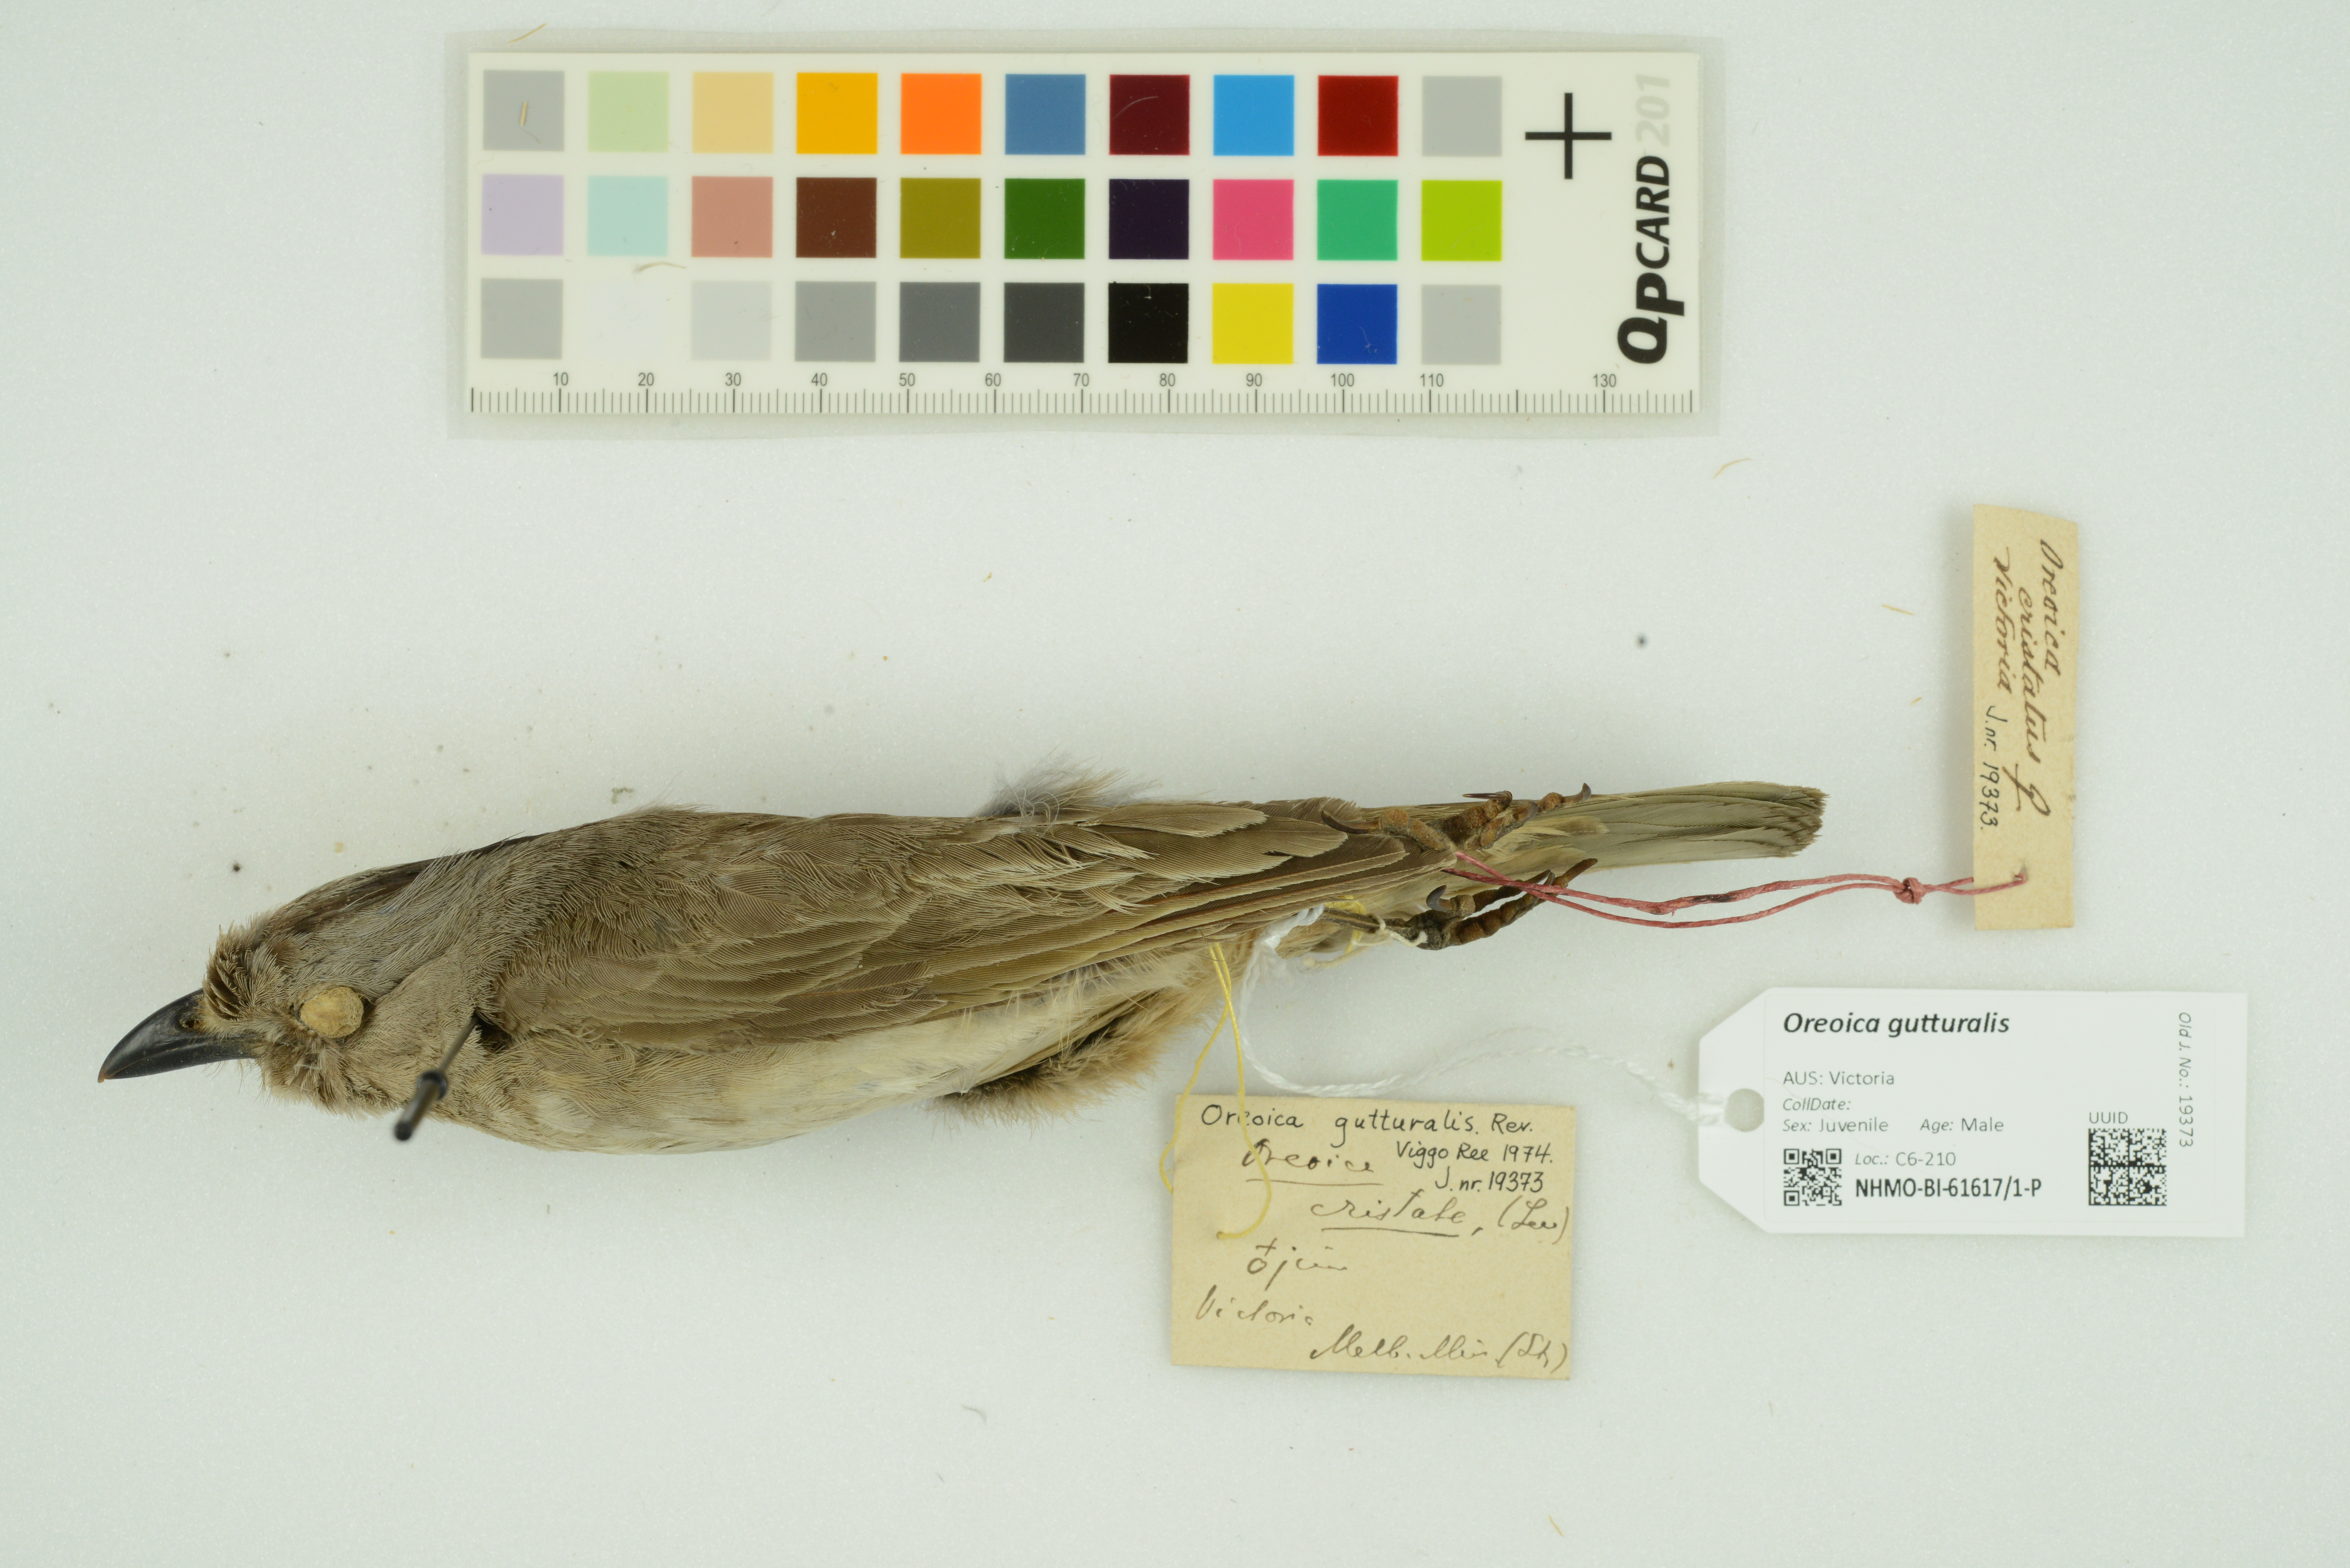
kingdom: Animalia
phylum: Chordata
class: Aves
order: Passeriformes
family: Oreoicidae
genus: Oreoica
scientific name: Oreoica gutturalis
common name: Crested bellbird
